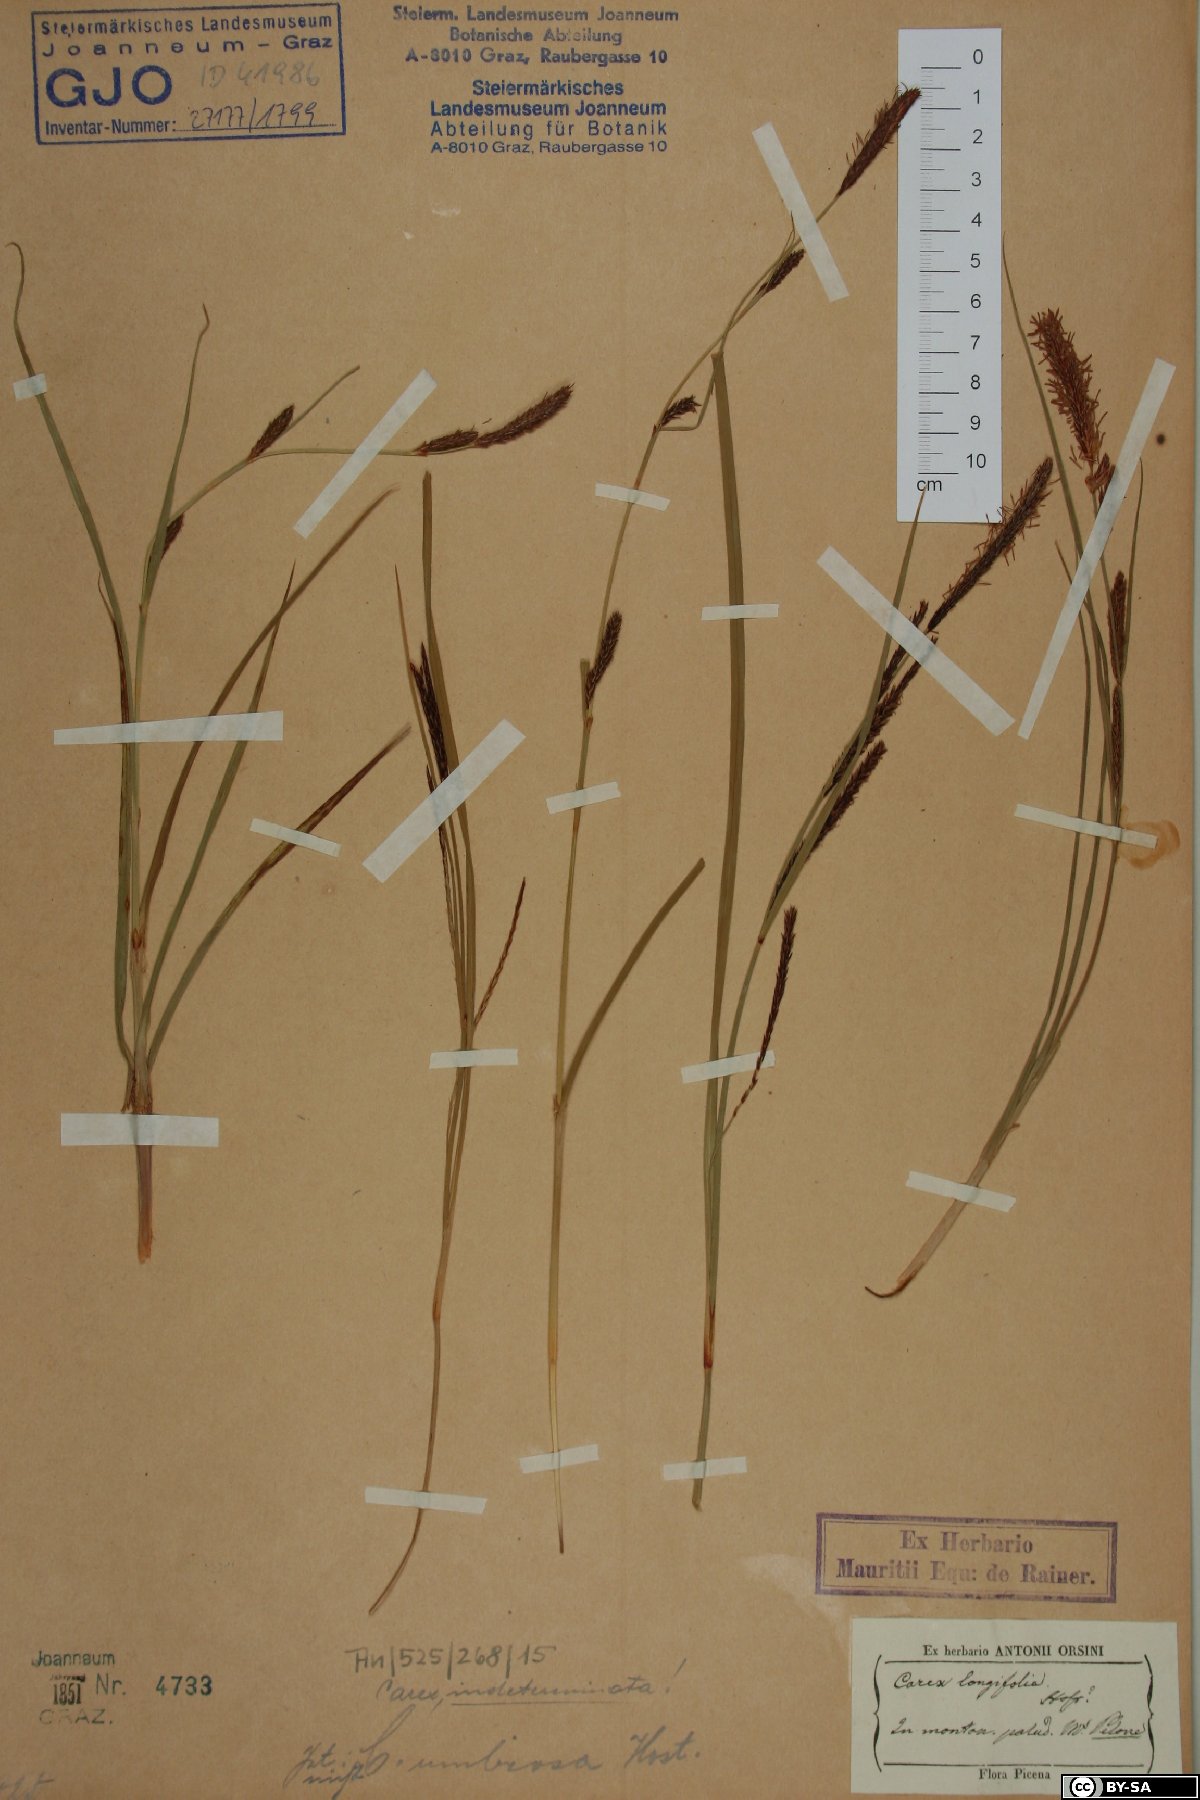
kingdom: Plantae
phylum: Tracheophyta
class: Liliopsida
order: Poales
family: Cyperaceae
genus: Carex
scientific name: Carex
